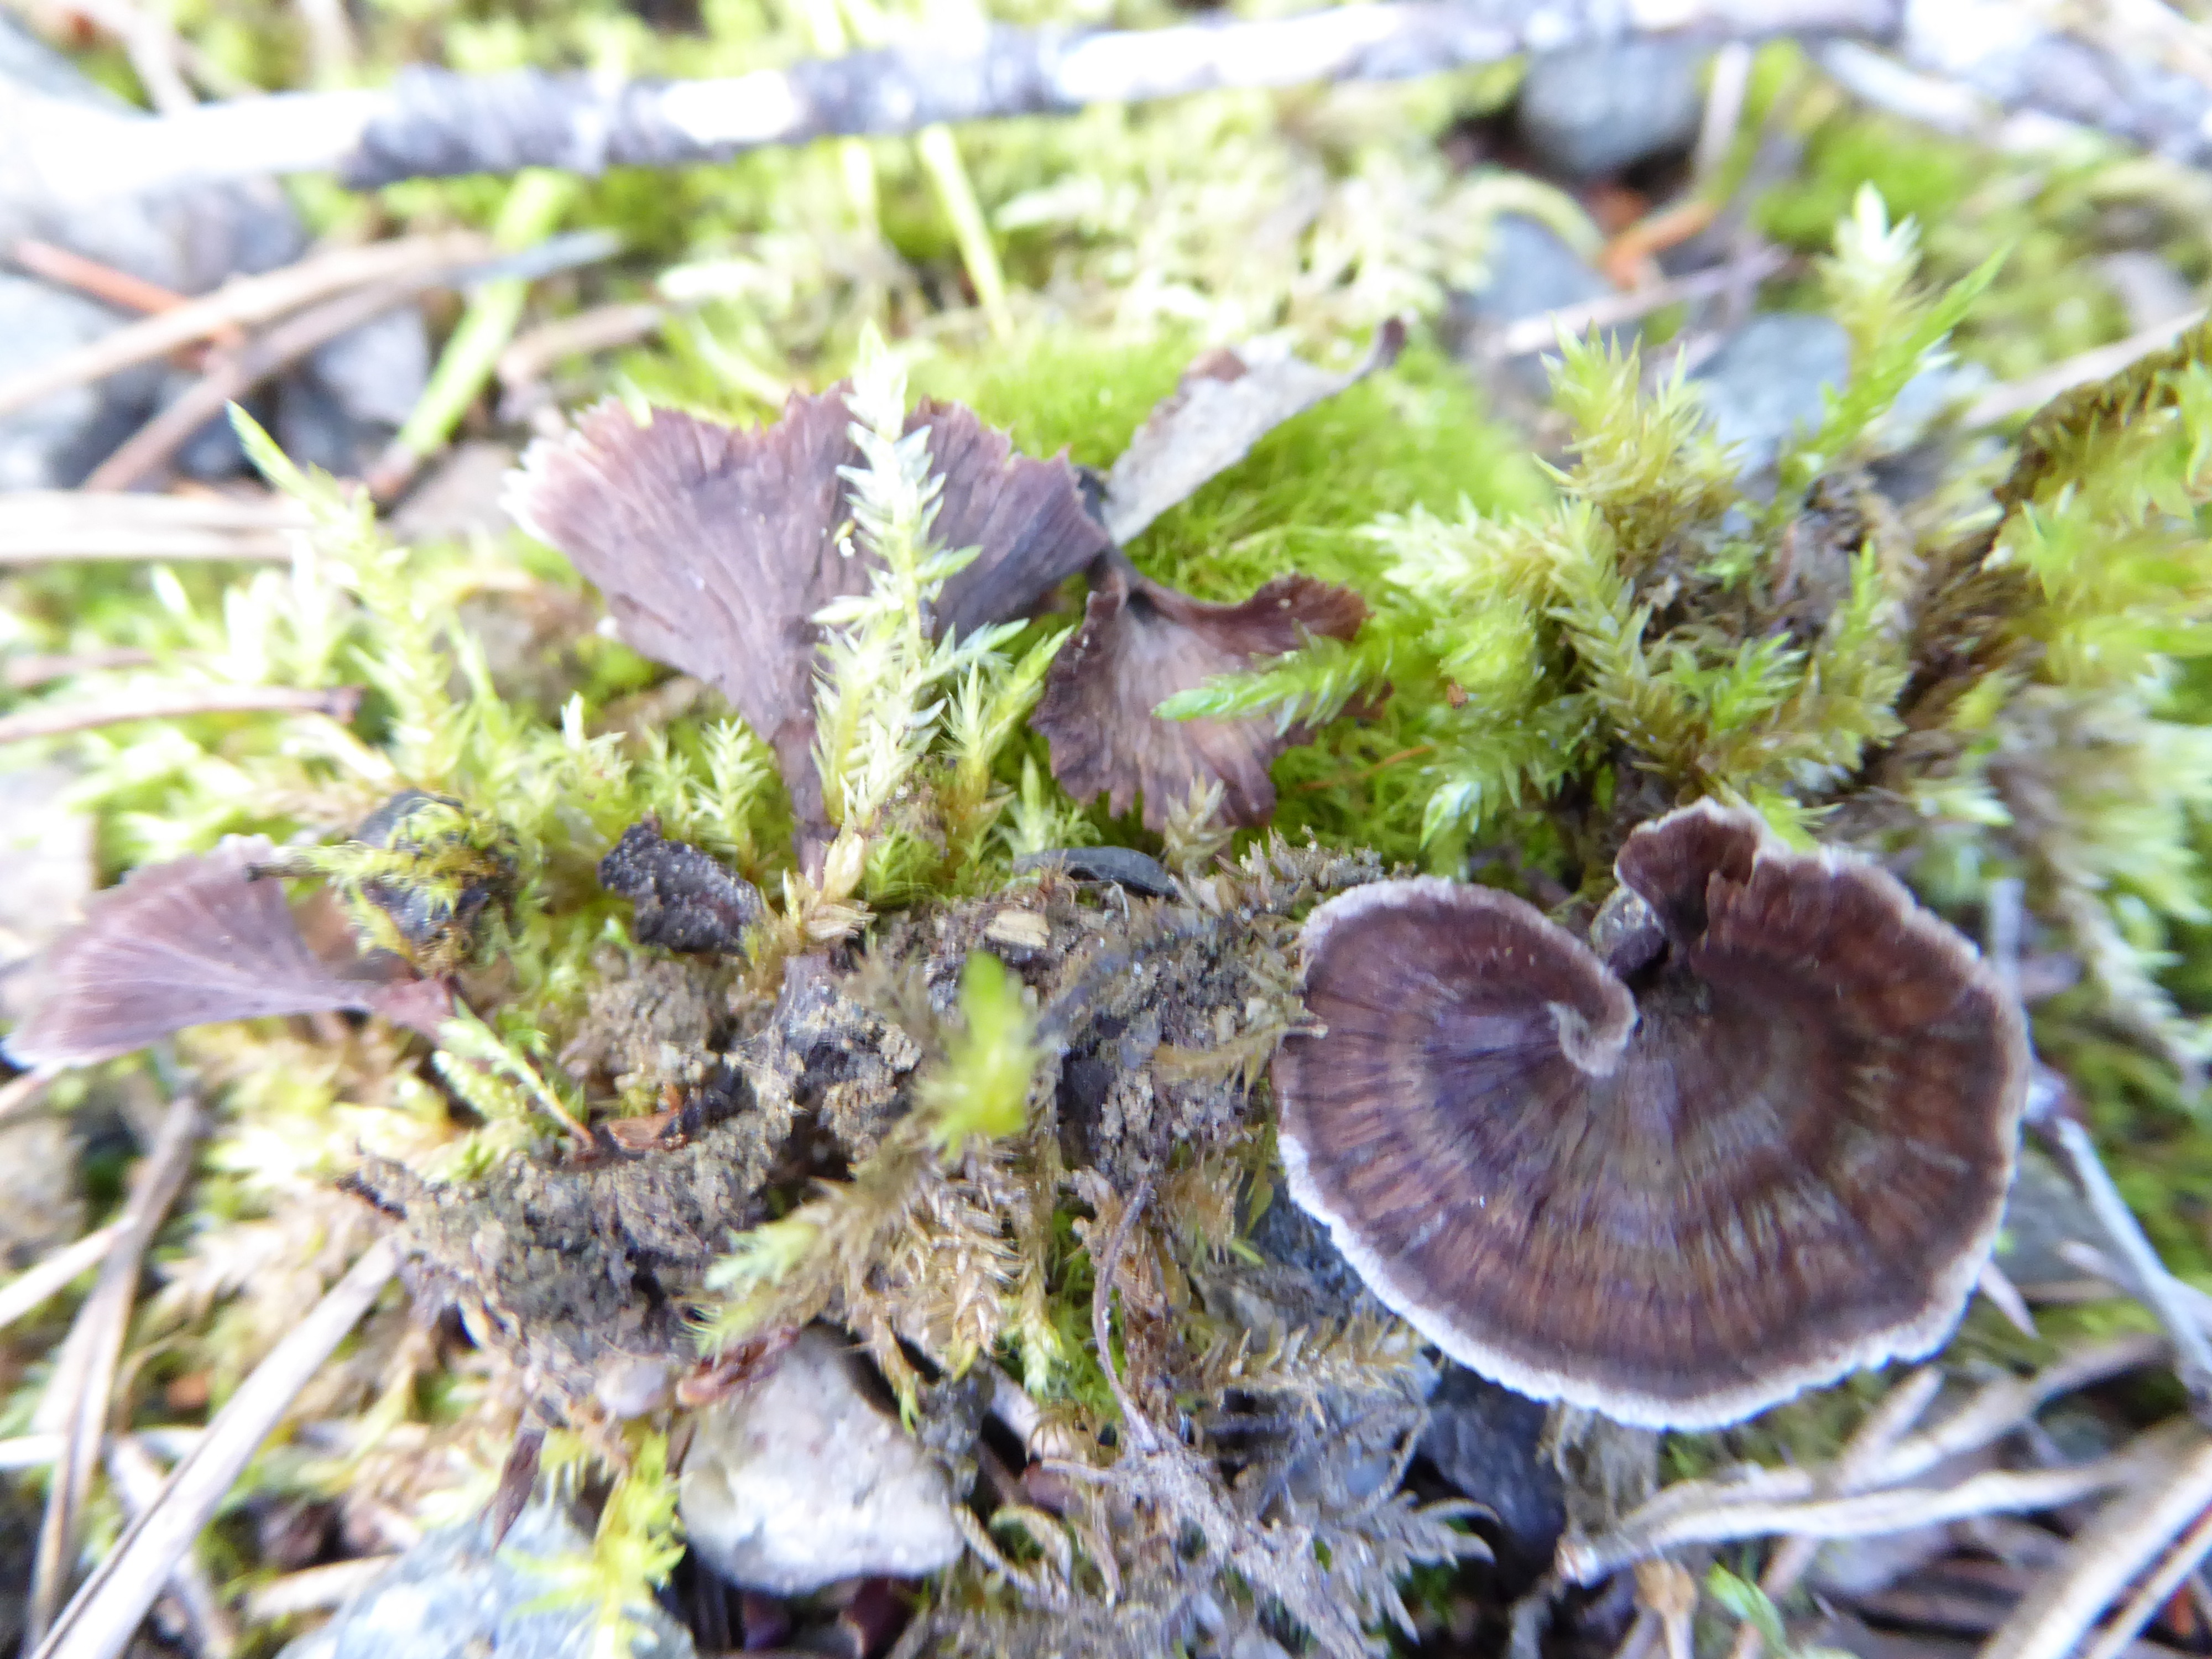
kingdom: Fungi
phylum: Basidiomycota
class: Agaricomycetes
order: Thelephorales
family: Thelephoraceae
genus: Thelephora
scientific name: Thelephora caryophyllea
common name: Carnation earthfan
